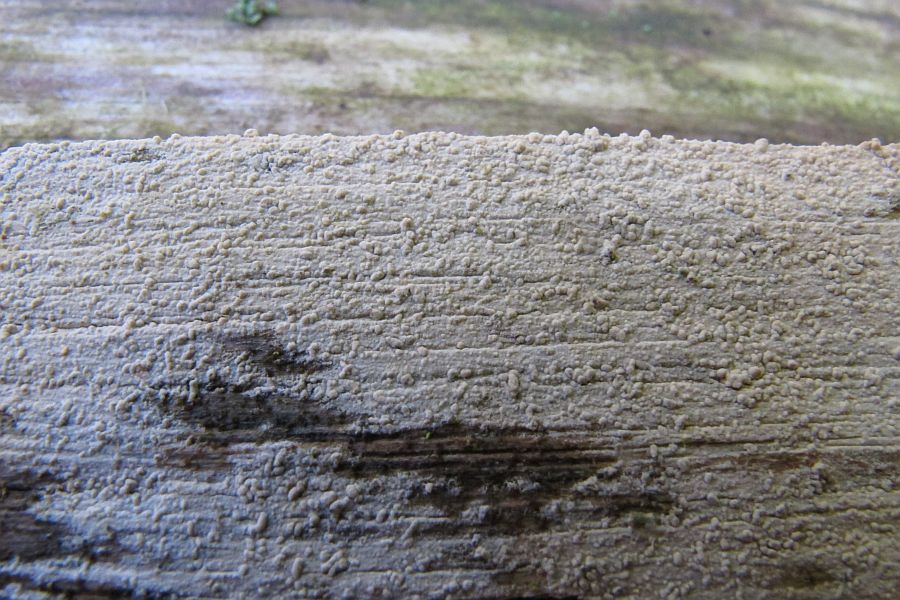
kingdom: Fungi
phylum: Basidiomycota
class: Agaricomycetes
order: Hymenochaetales
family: Hyphodontiaceae
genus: Hyphodontia
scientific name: Hyphodontia pallidula
